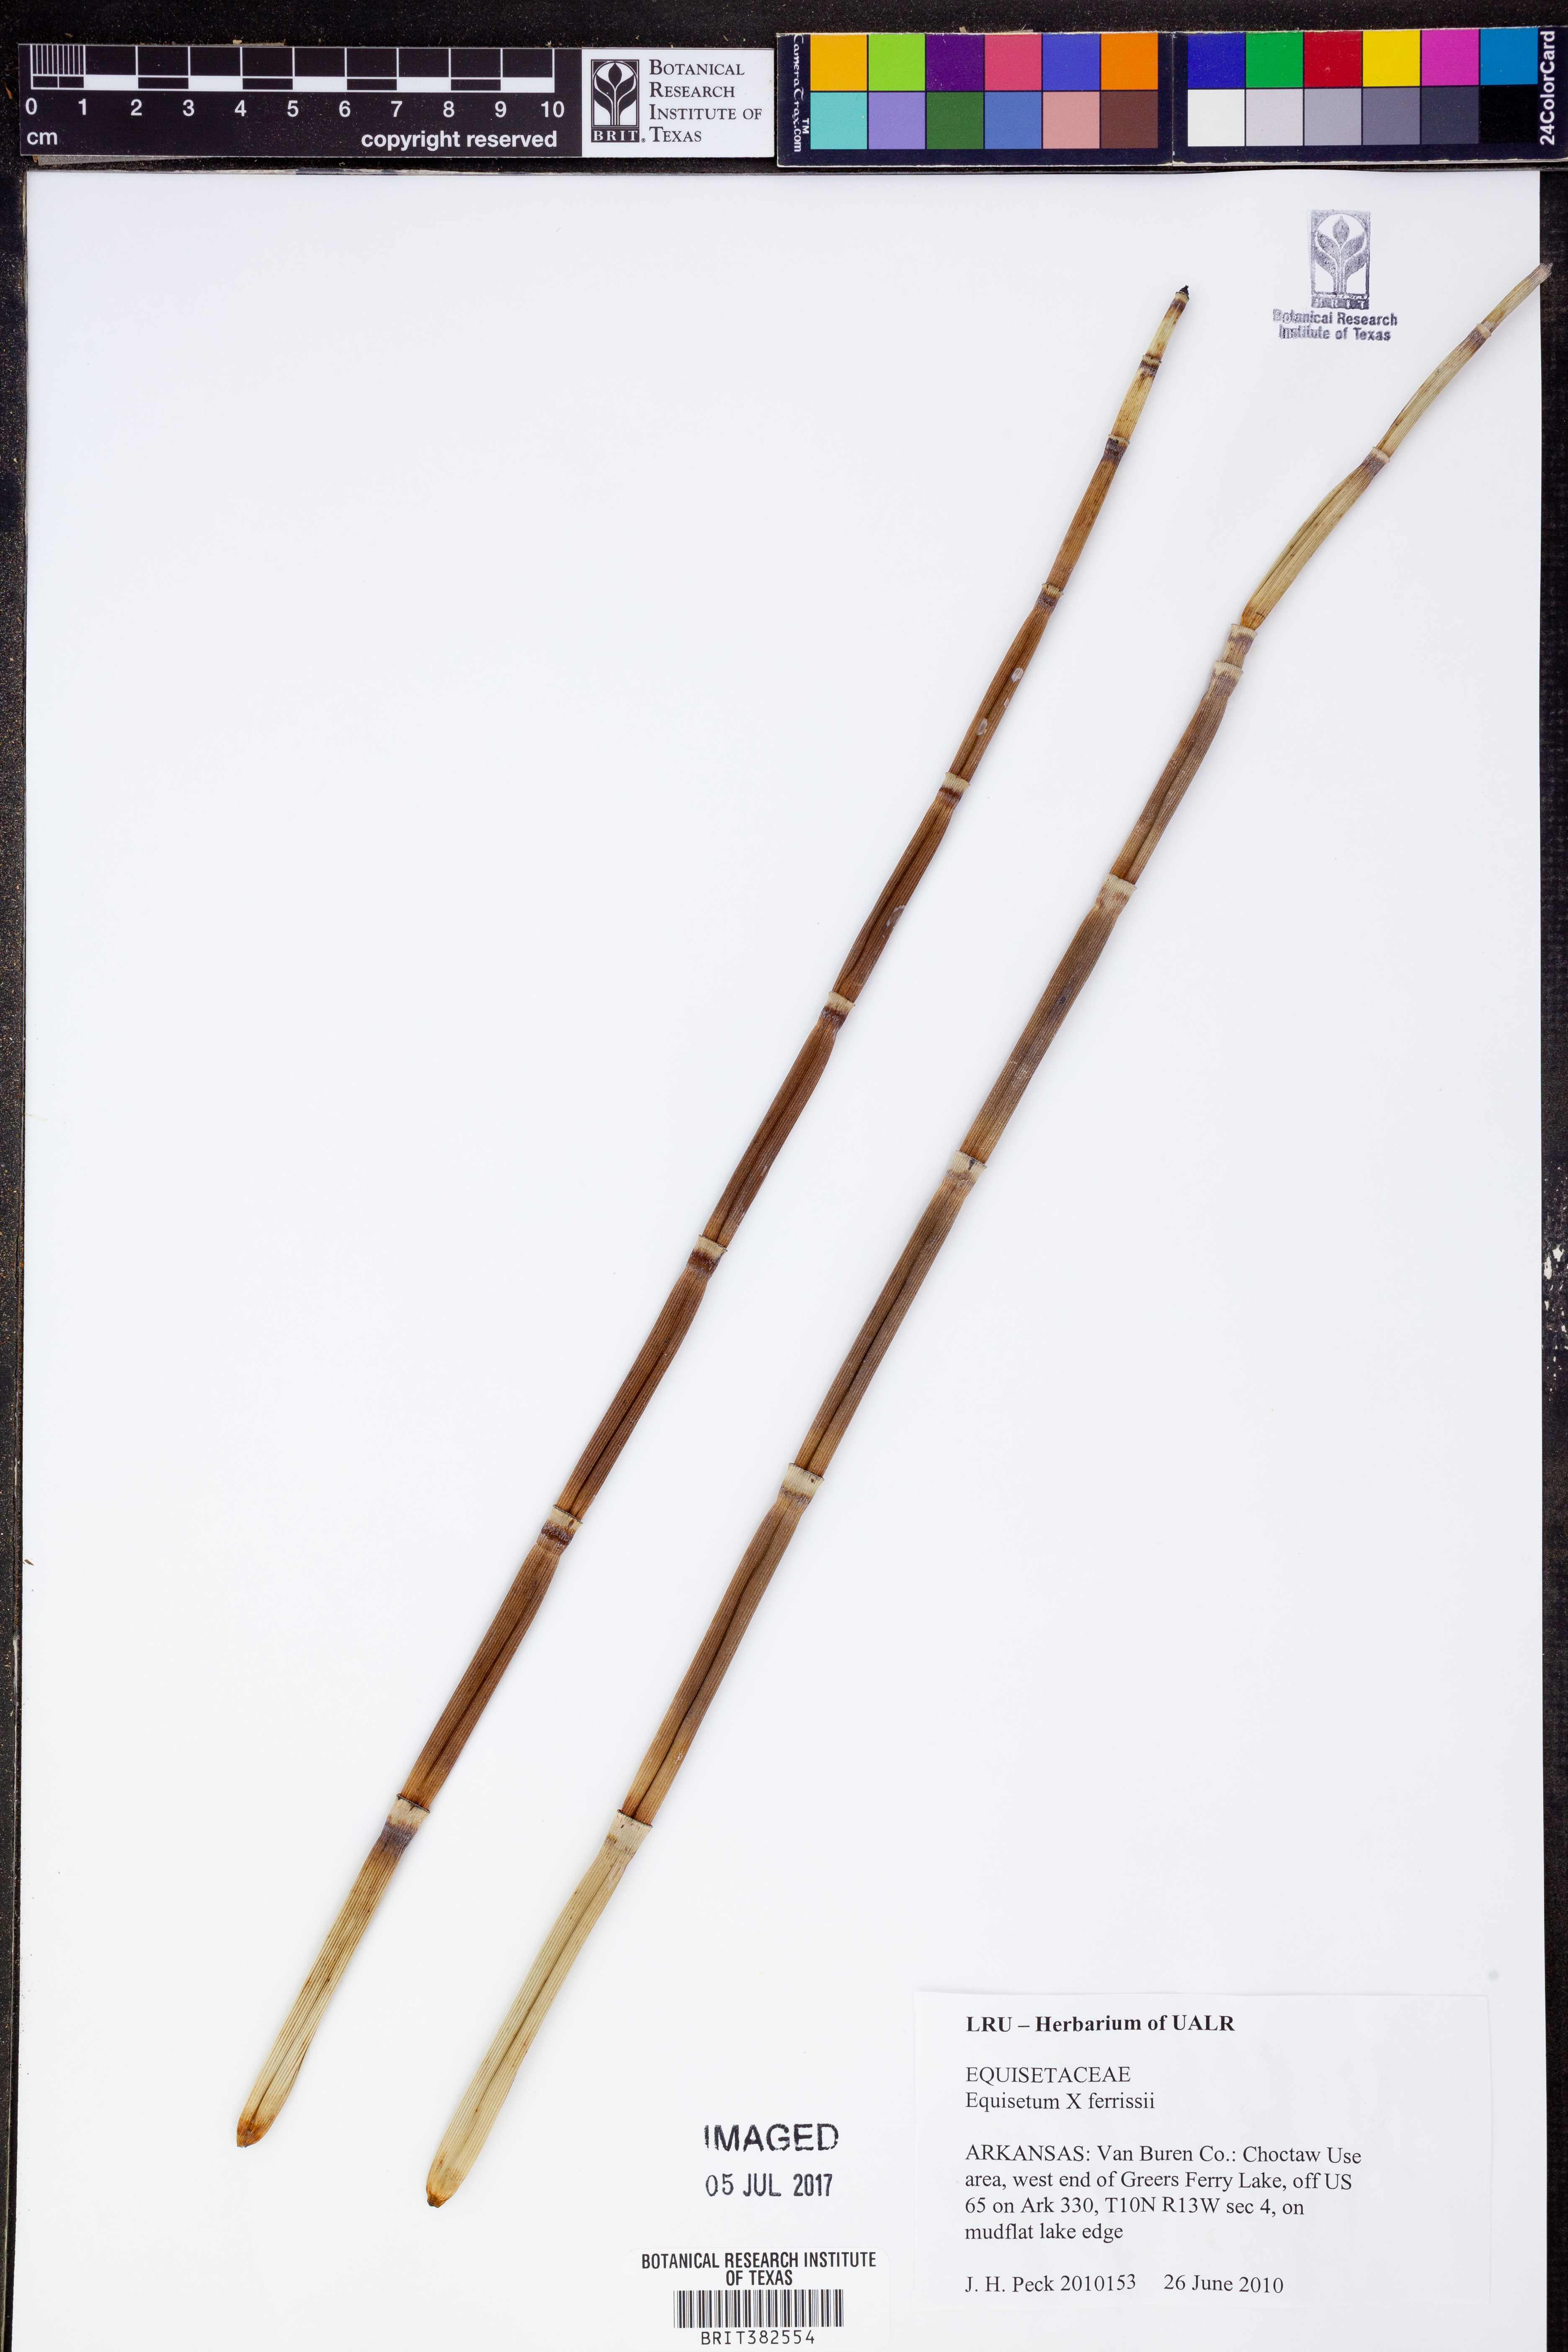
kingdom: Plantae
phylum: Tracheophyta
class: Polypodiopsida
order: Equisetales
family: Equisetaceae
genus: Equisetum
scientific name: Equisetum ferrissii
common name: Ferriss' horsetail
